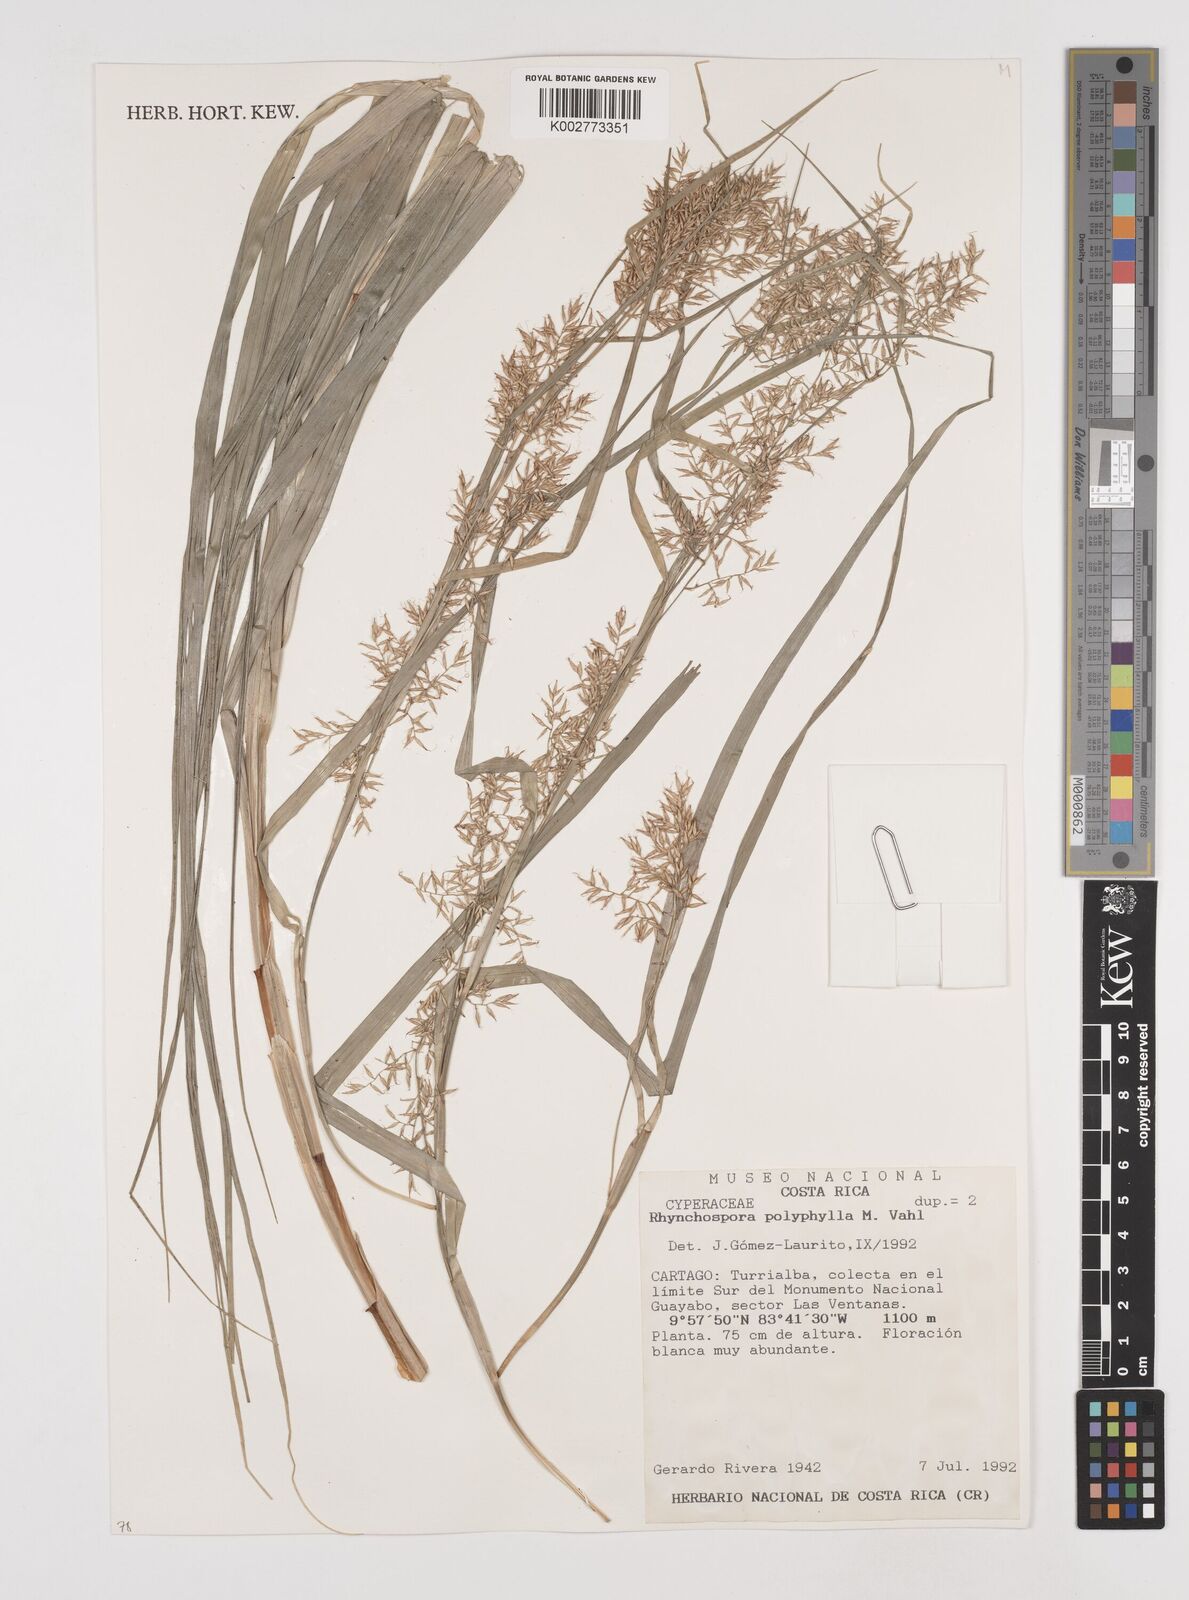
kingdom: Plantae
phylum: Tracheophyta
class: Liliopsida
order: Poales
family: Cyperaceae
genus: Rhynchospora
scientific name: Rhynchospora polyphylla
